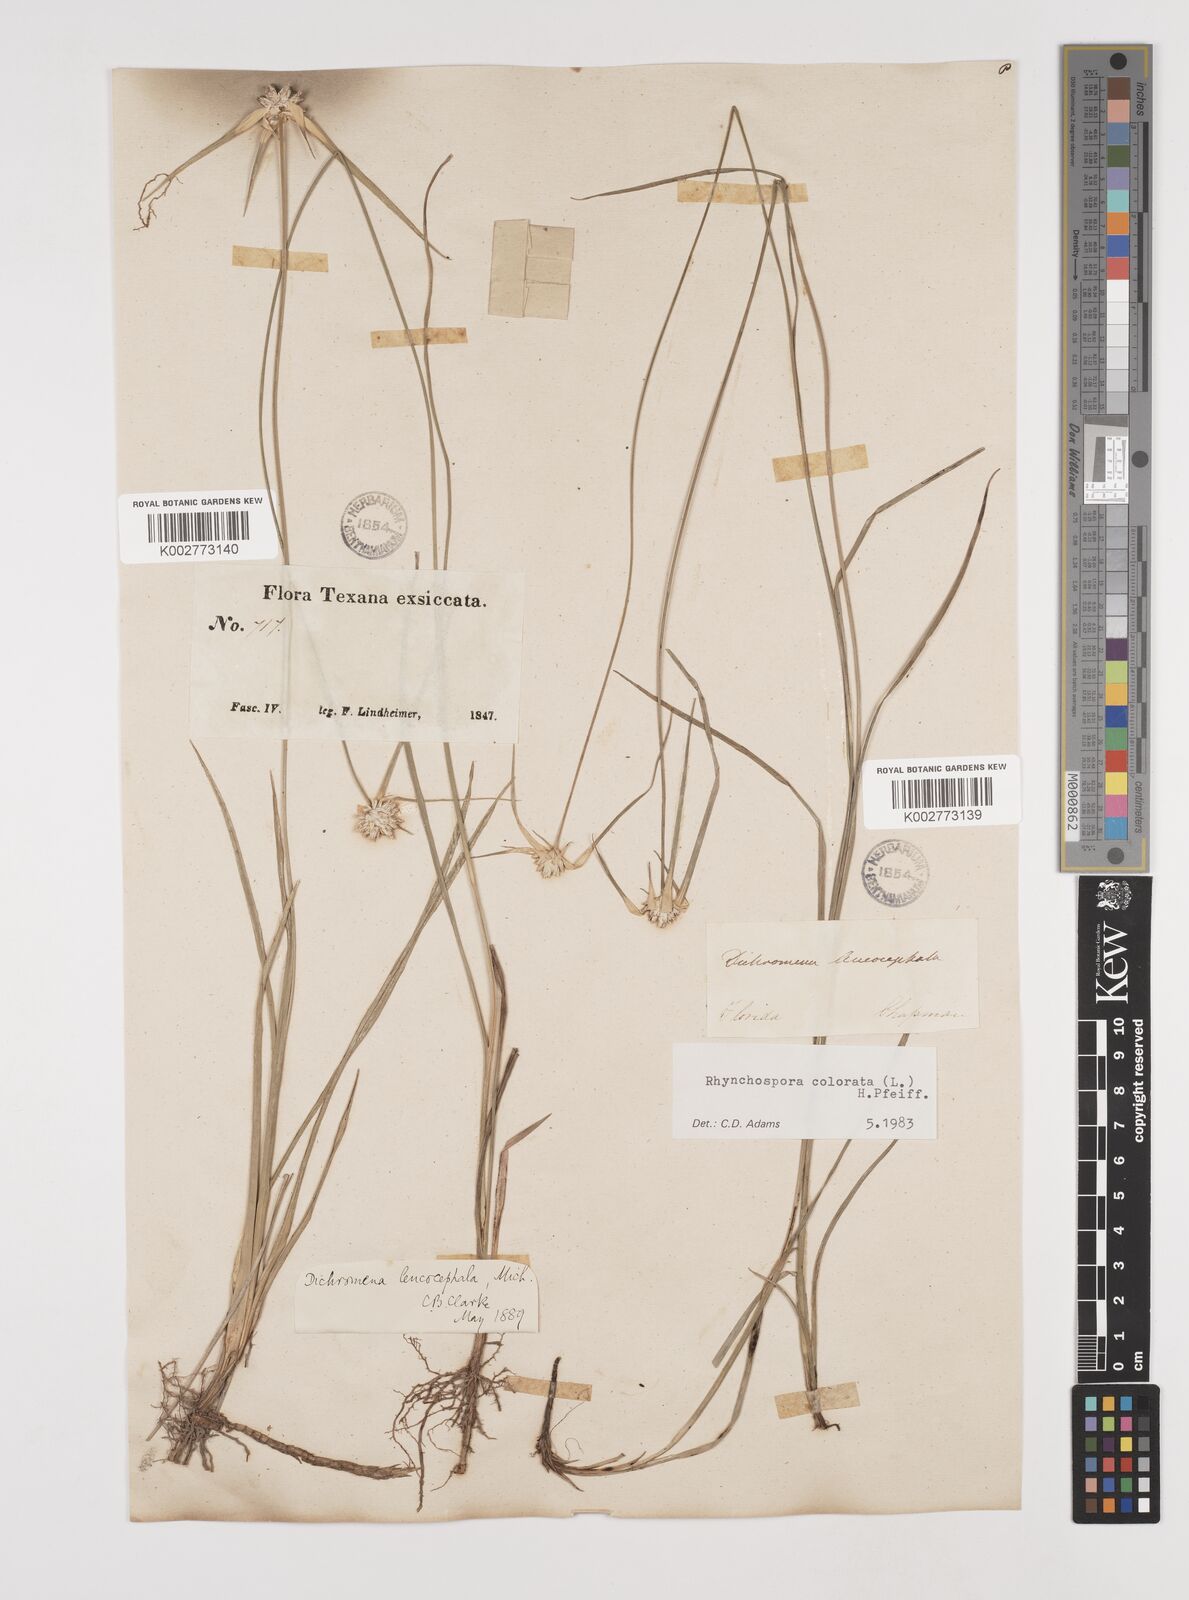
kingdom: Plantae
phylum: Tracheophyta
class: Liliopsida
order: Poales
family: Cyperaceae
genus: Rhynchospora
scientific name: Rhynchospora colorata
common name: Star sedge
